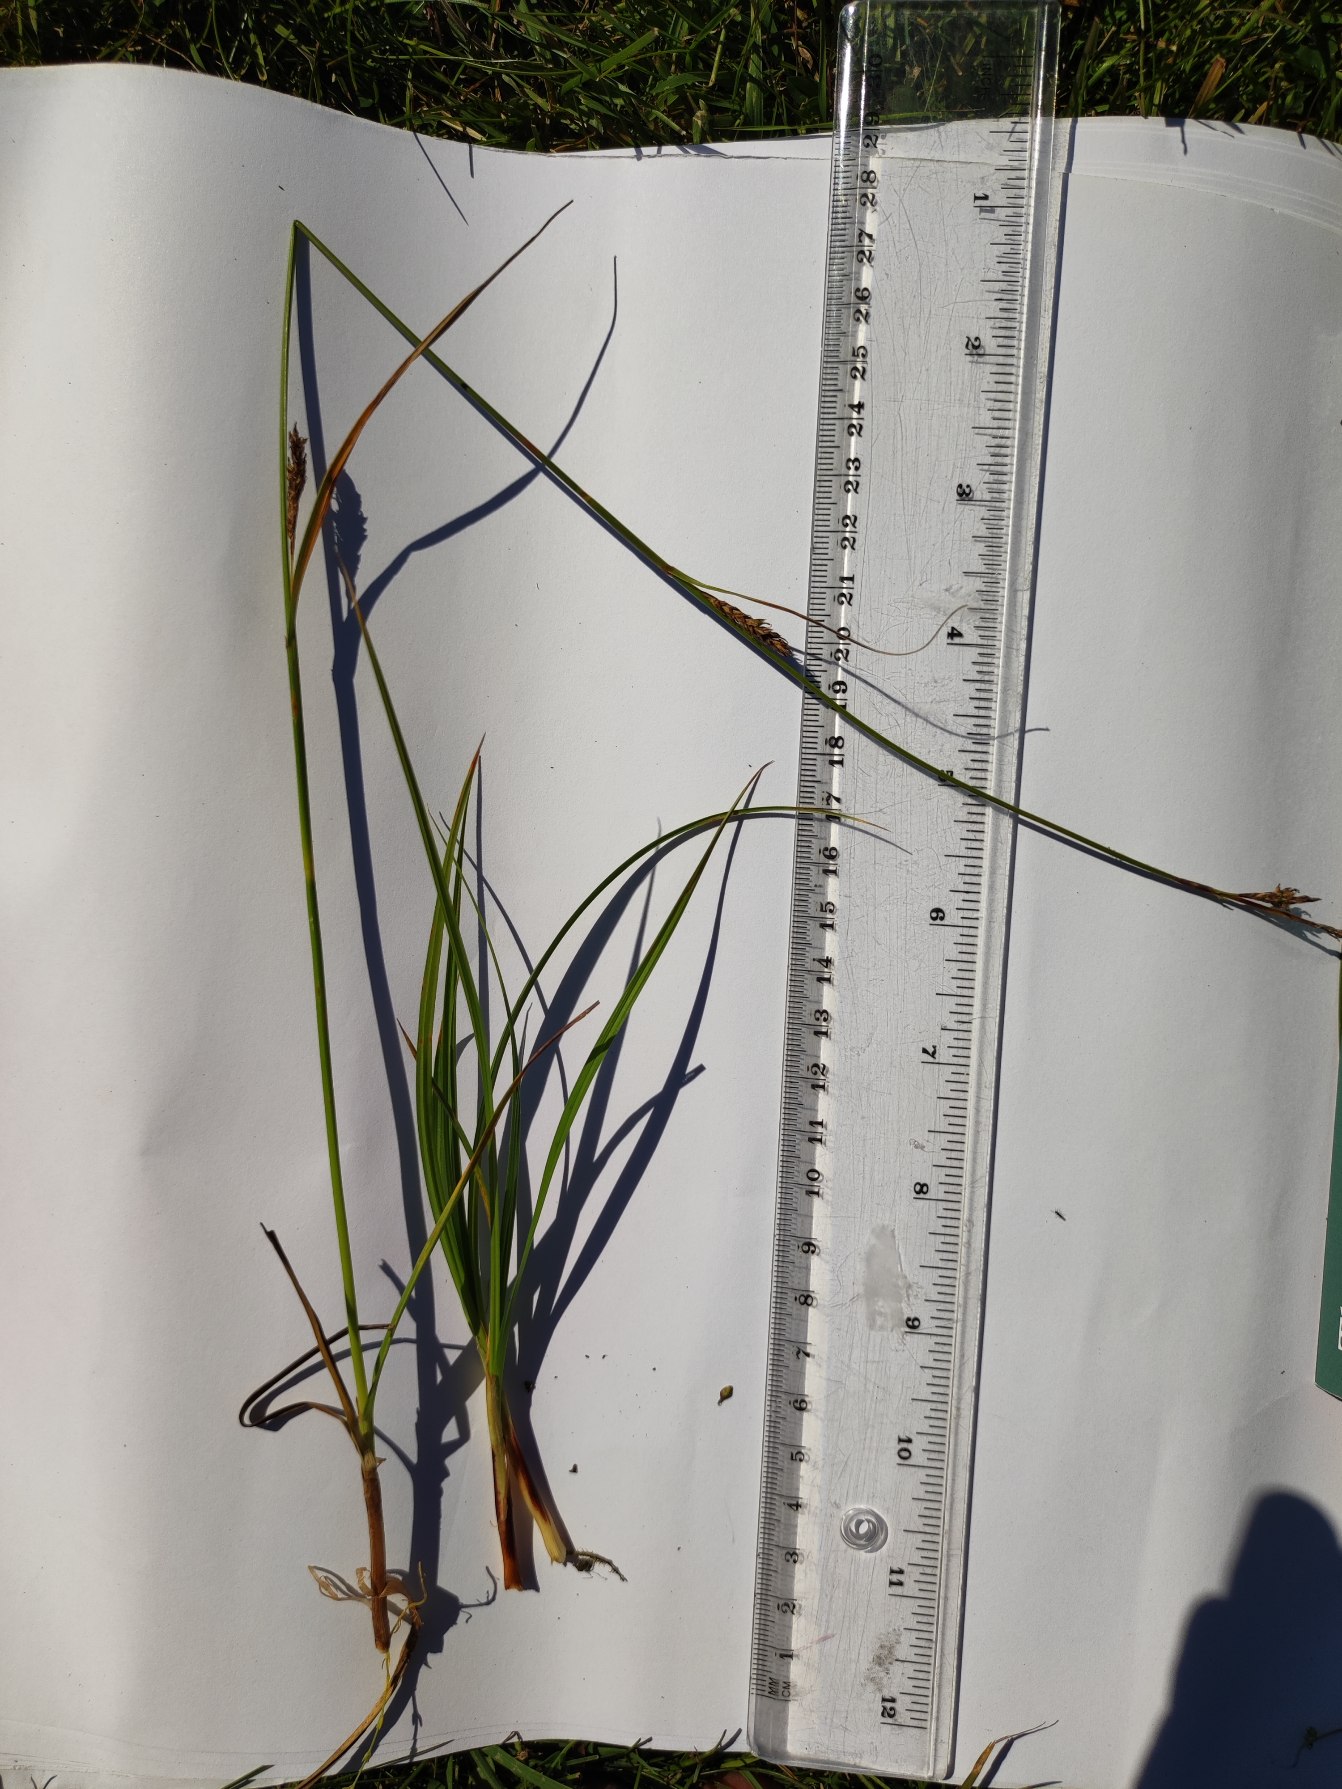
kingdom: Plantae
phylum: Tracheophyta
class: Liliopsida
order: Poales
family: Cyperaceae
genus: Carex
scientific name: Carex distans
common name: Fjernakset star
